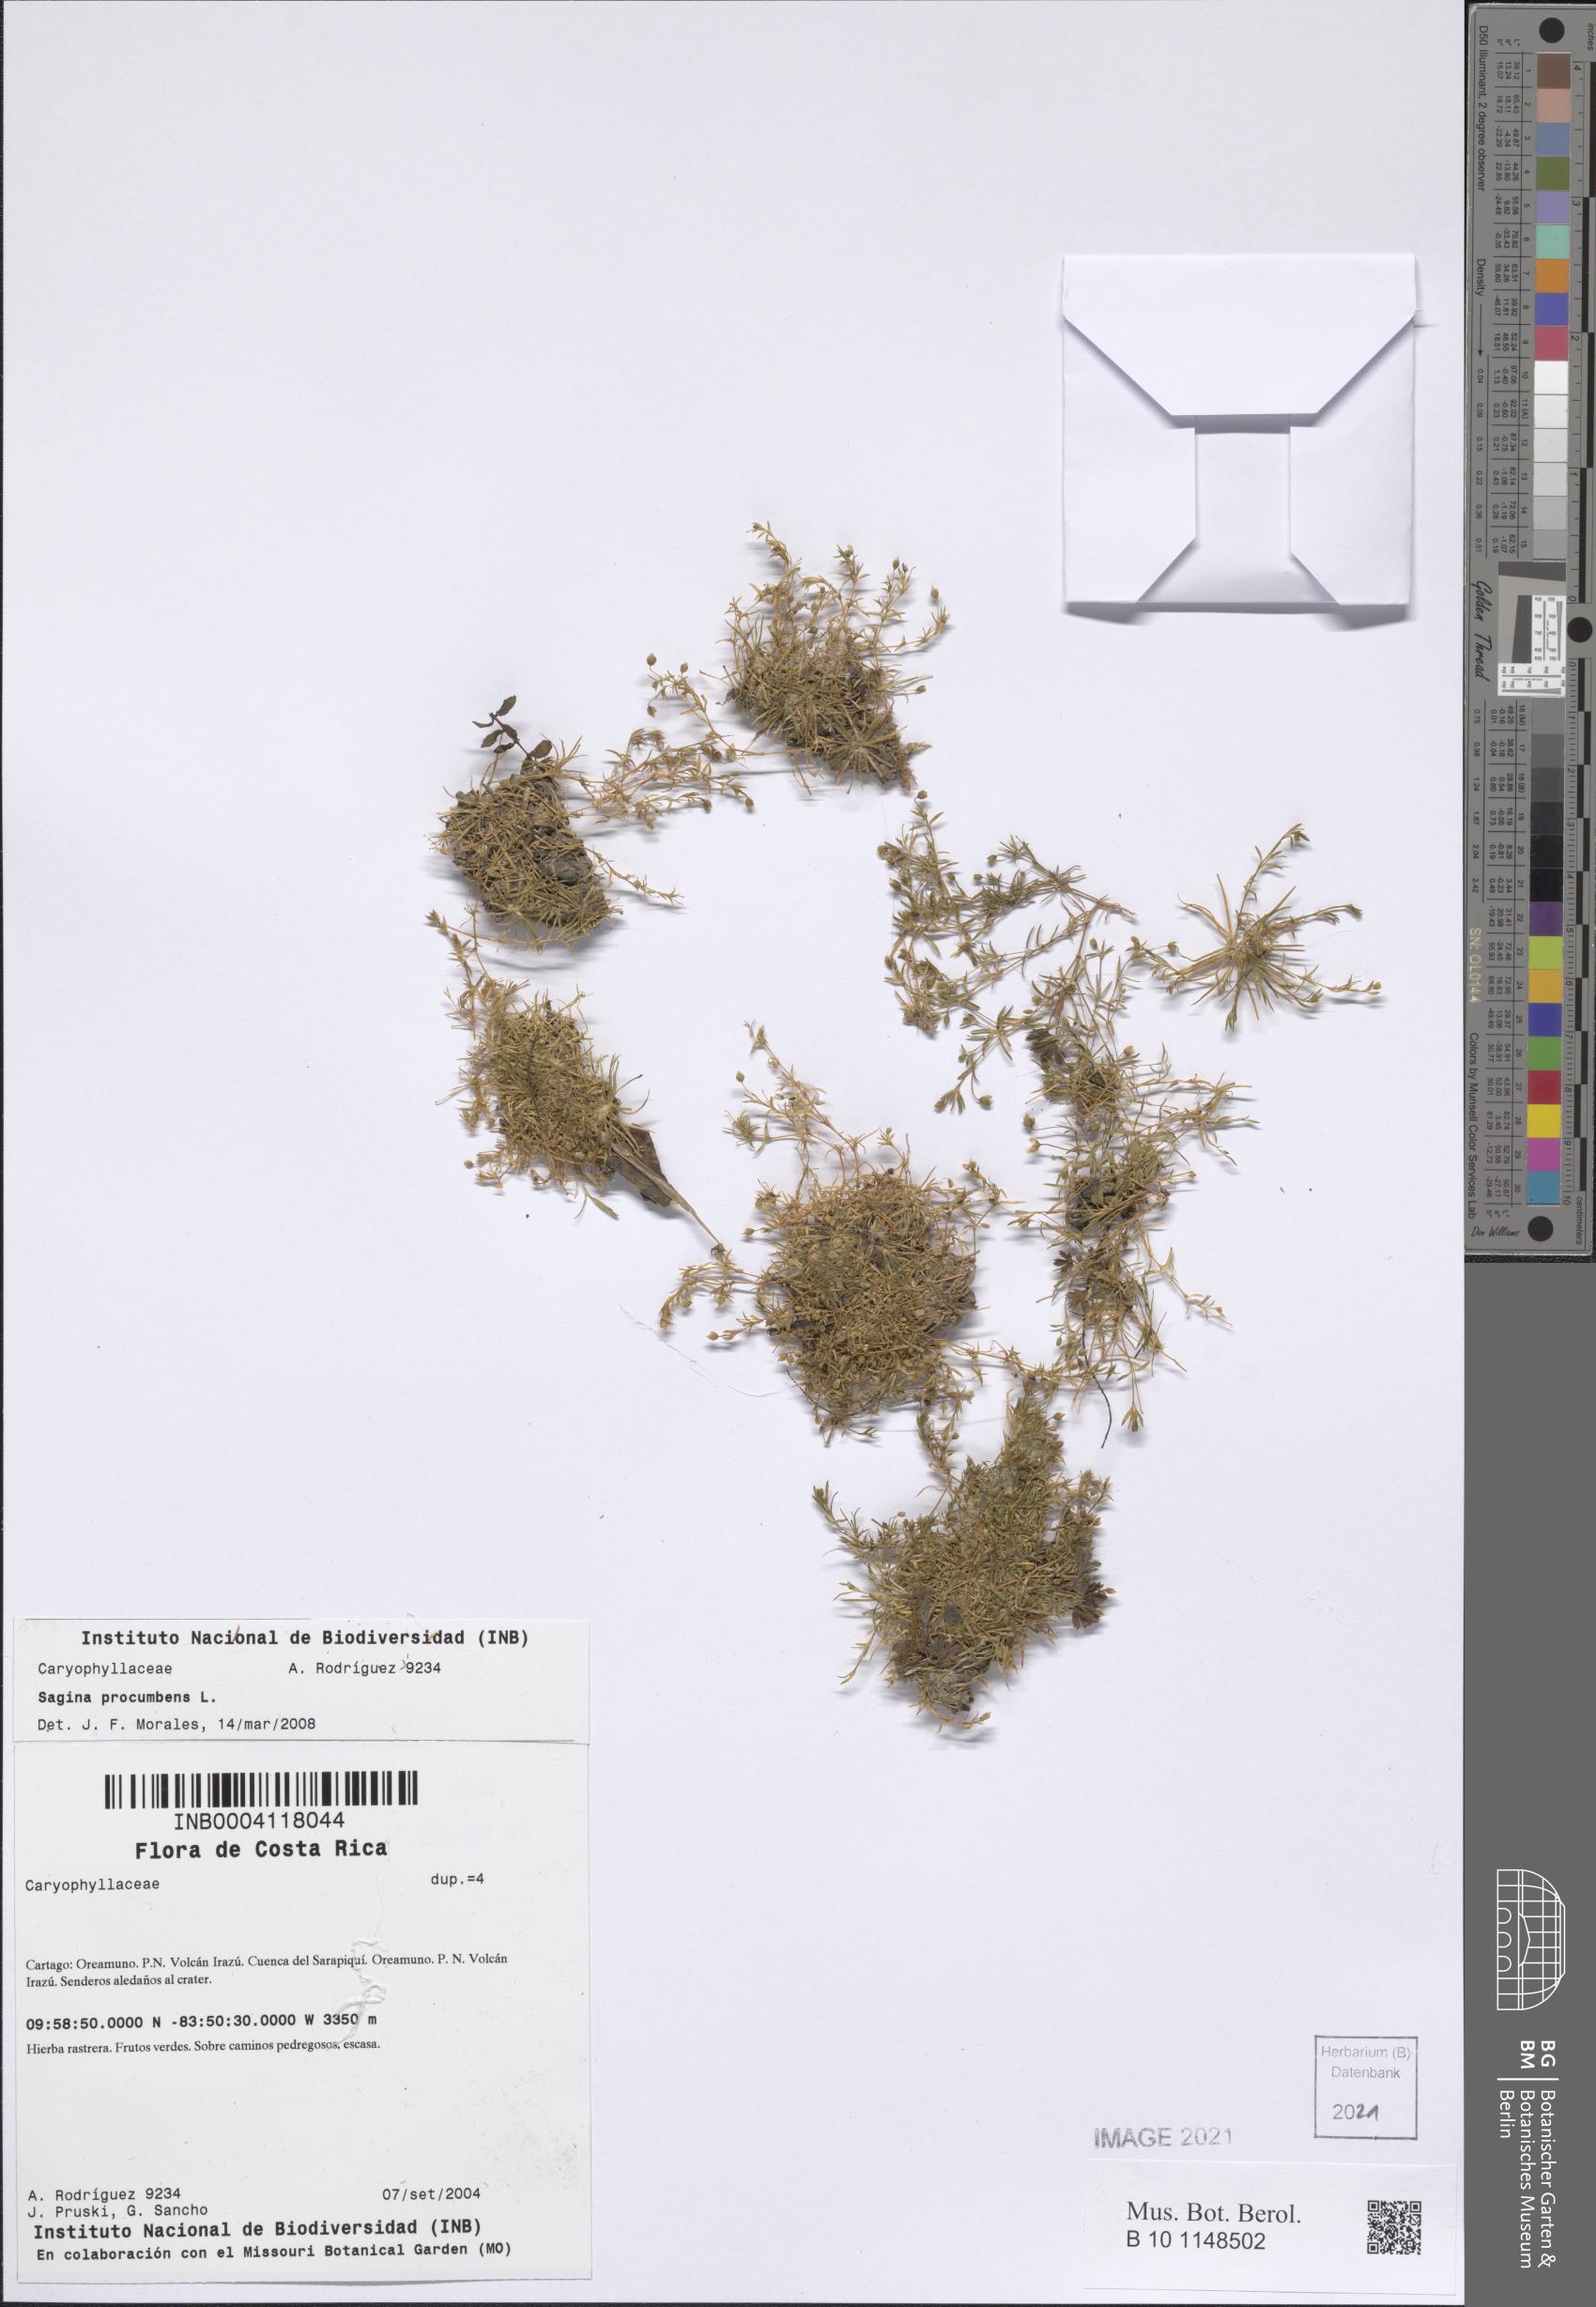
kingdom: Plantae
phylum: Tracheophyta
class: Magnoliopsida
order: Caryophyllales
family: Caryophyllaceae
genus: Sagina
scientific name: Sagina procumbens
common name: Procumbent pearlwort
